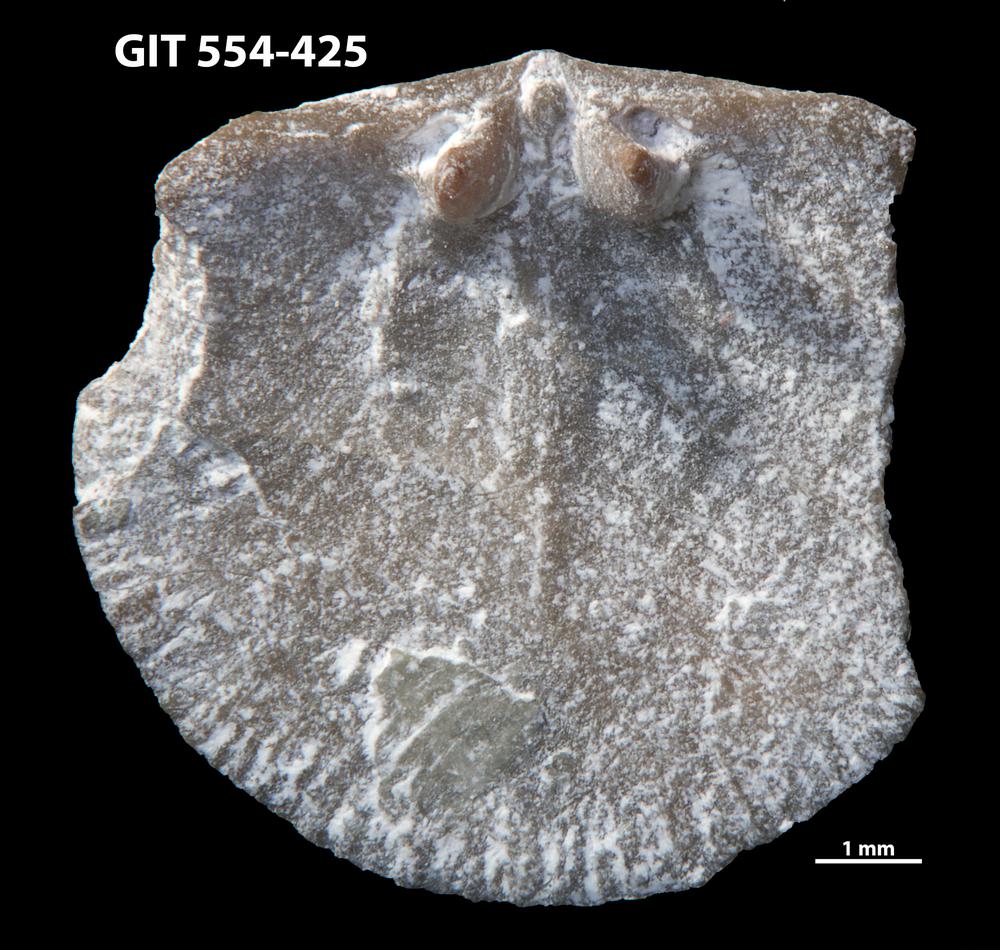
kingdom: Animalia
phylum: Brachiopoda
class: Rhynchonellata
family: Dalmanellidae
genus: Onniella
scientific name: Onniella trigona
